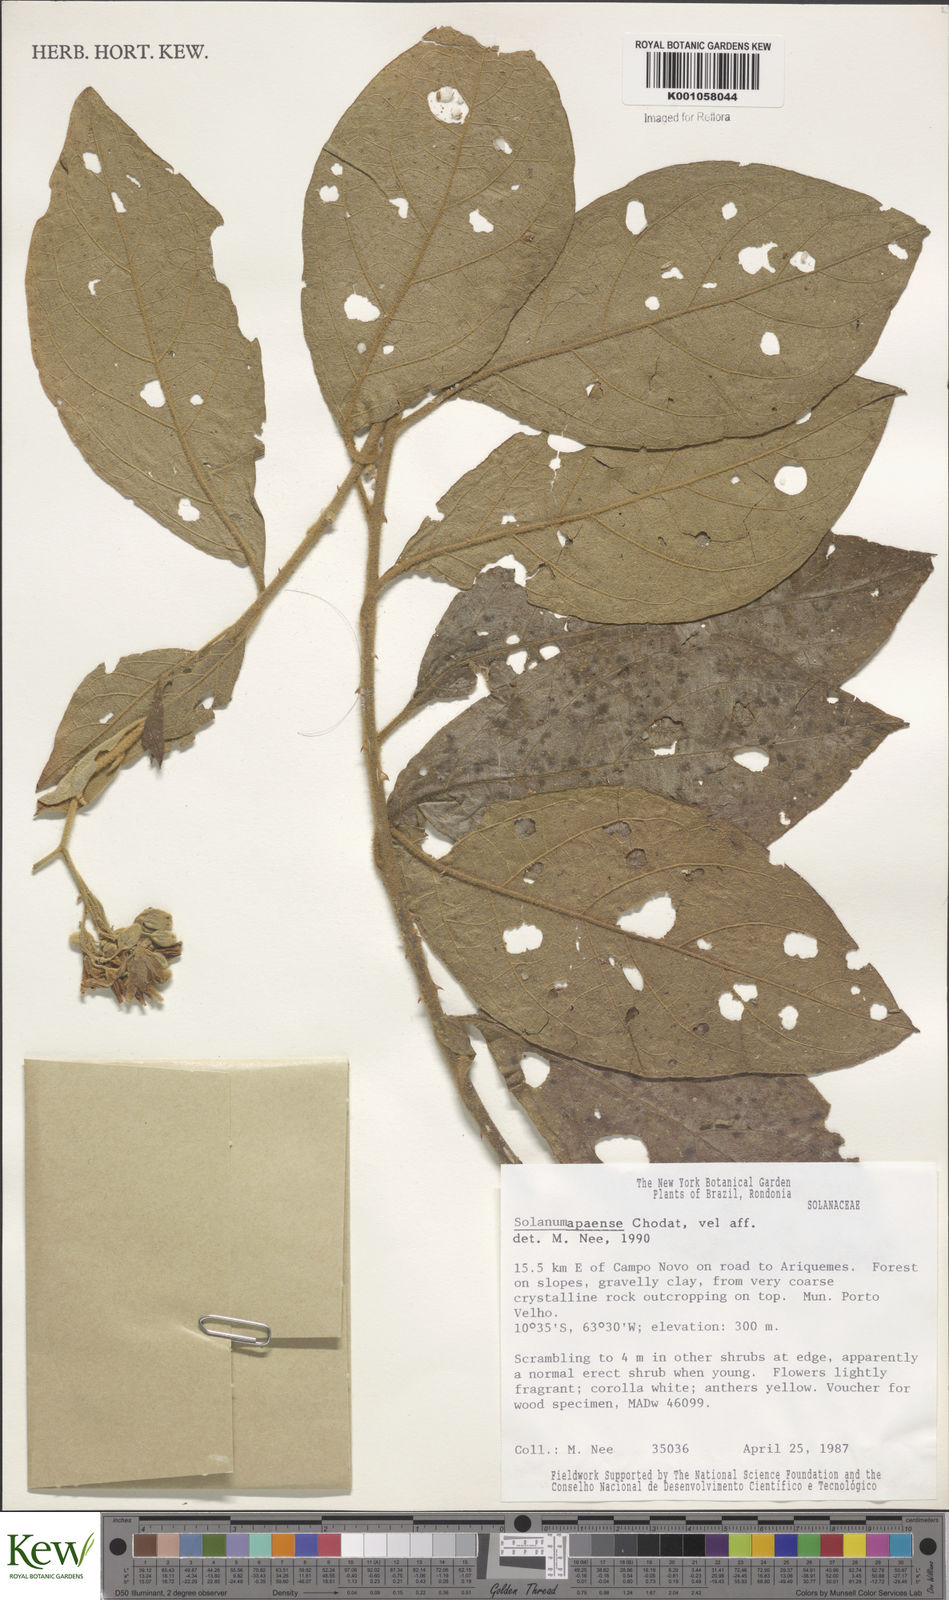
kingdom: Plantae
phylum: Tracheophyta
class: Magnoliopsida
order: Solanales
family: Solanaceae
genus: Solanum
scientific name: Solanum rhytidoandrum
